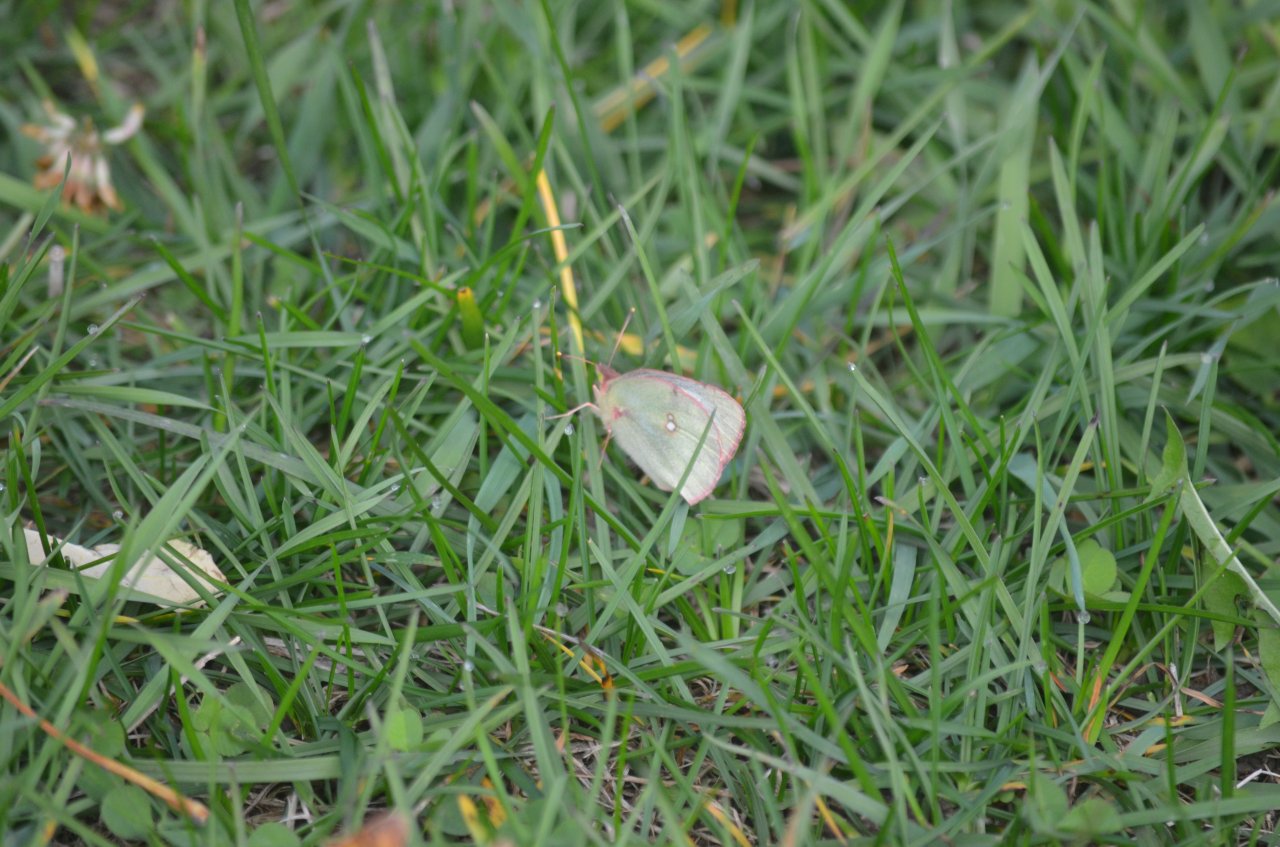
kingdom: Animalia
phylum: Arthropoda
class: Insecta
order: Lepidoptera
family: Pieridae
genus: Colias
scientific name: Colias philodice
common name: Clouded Sulphur
